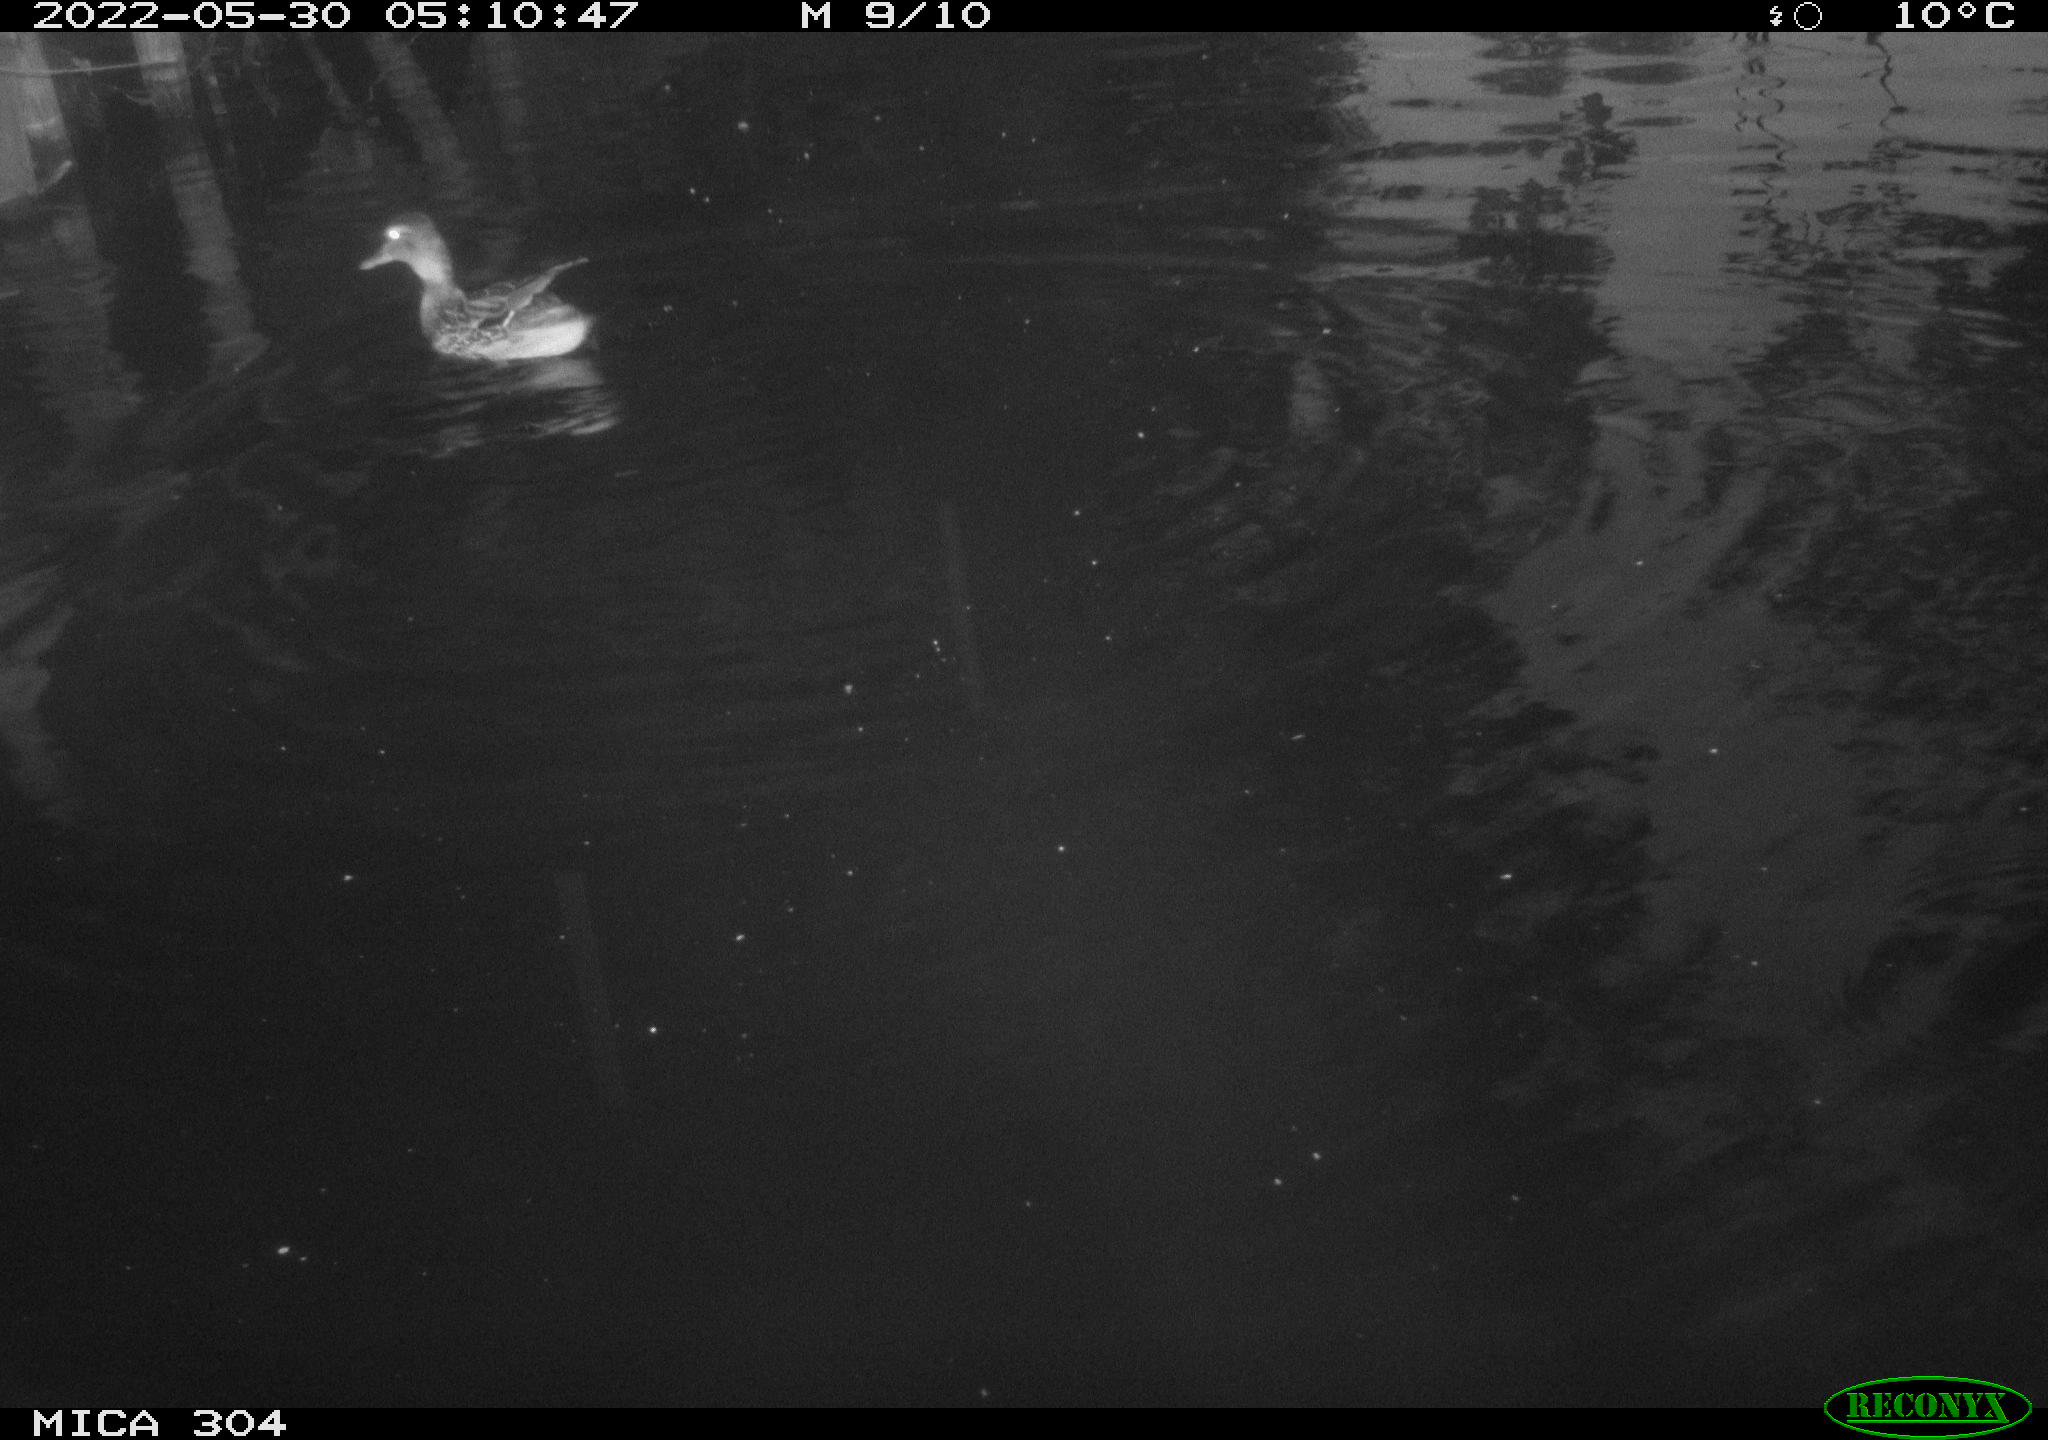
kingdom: Animalia
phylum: Chordata
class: Aves
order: Anseriformes
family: Anatidae
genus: Mareca
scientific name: Mareca strepera
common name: Gadwall
